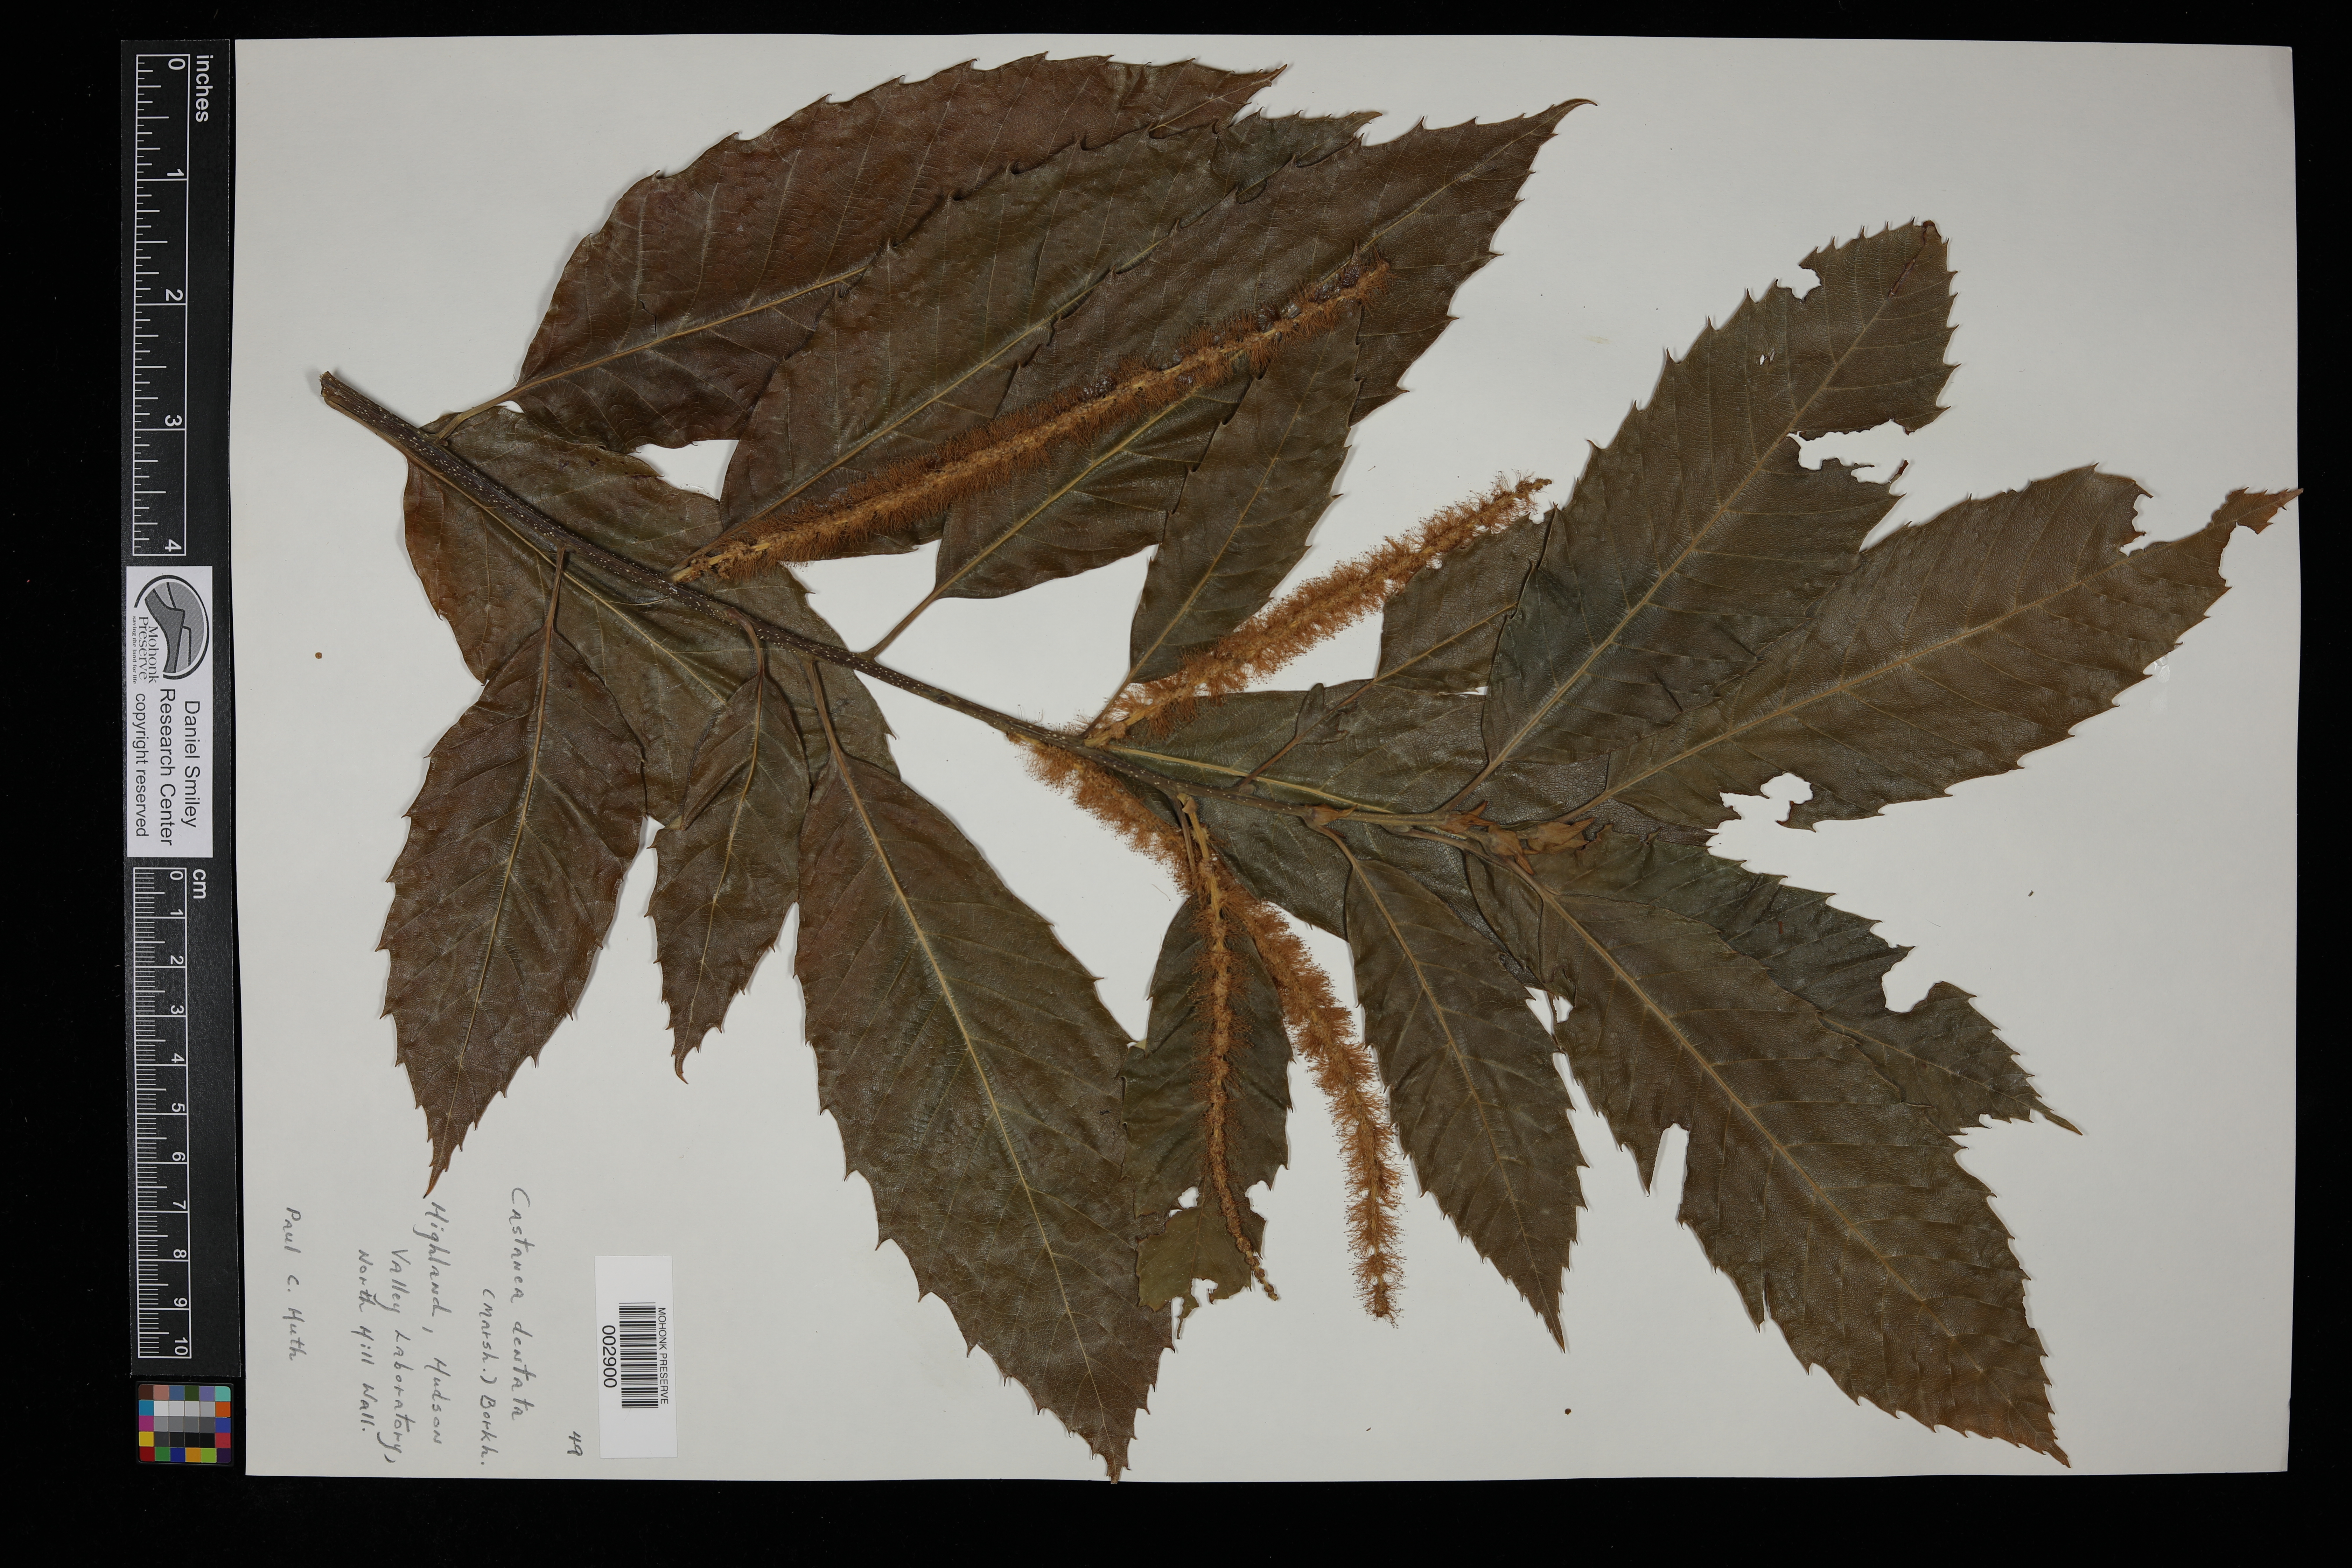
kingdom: Plantae
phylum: Tracheophyta
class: Magnoliopsida
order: Fagales
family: Fagaceae
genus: Castanea
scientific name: Castanea dentata
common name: American chestnut
